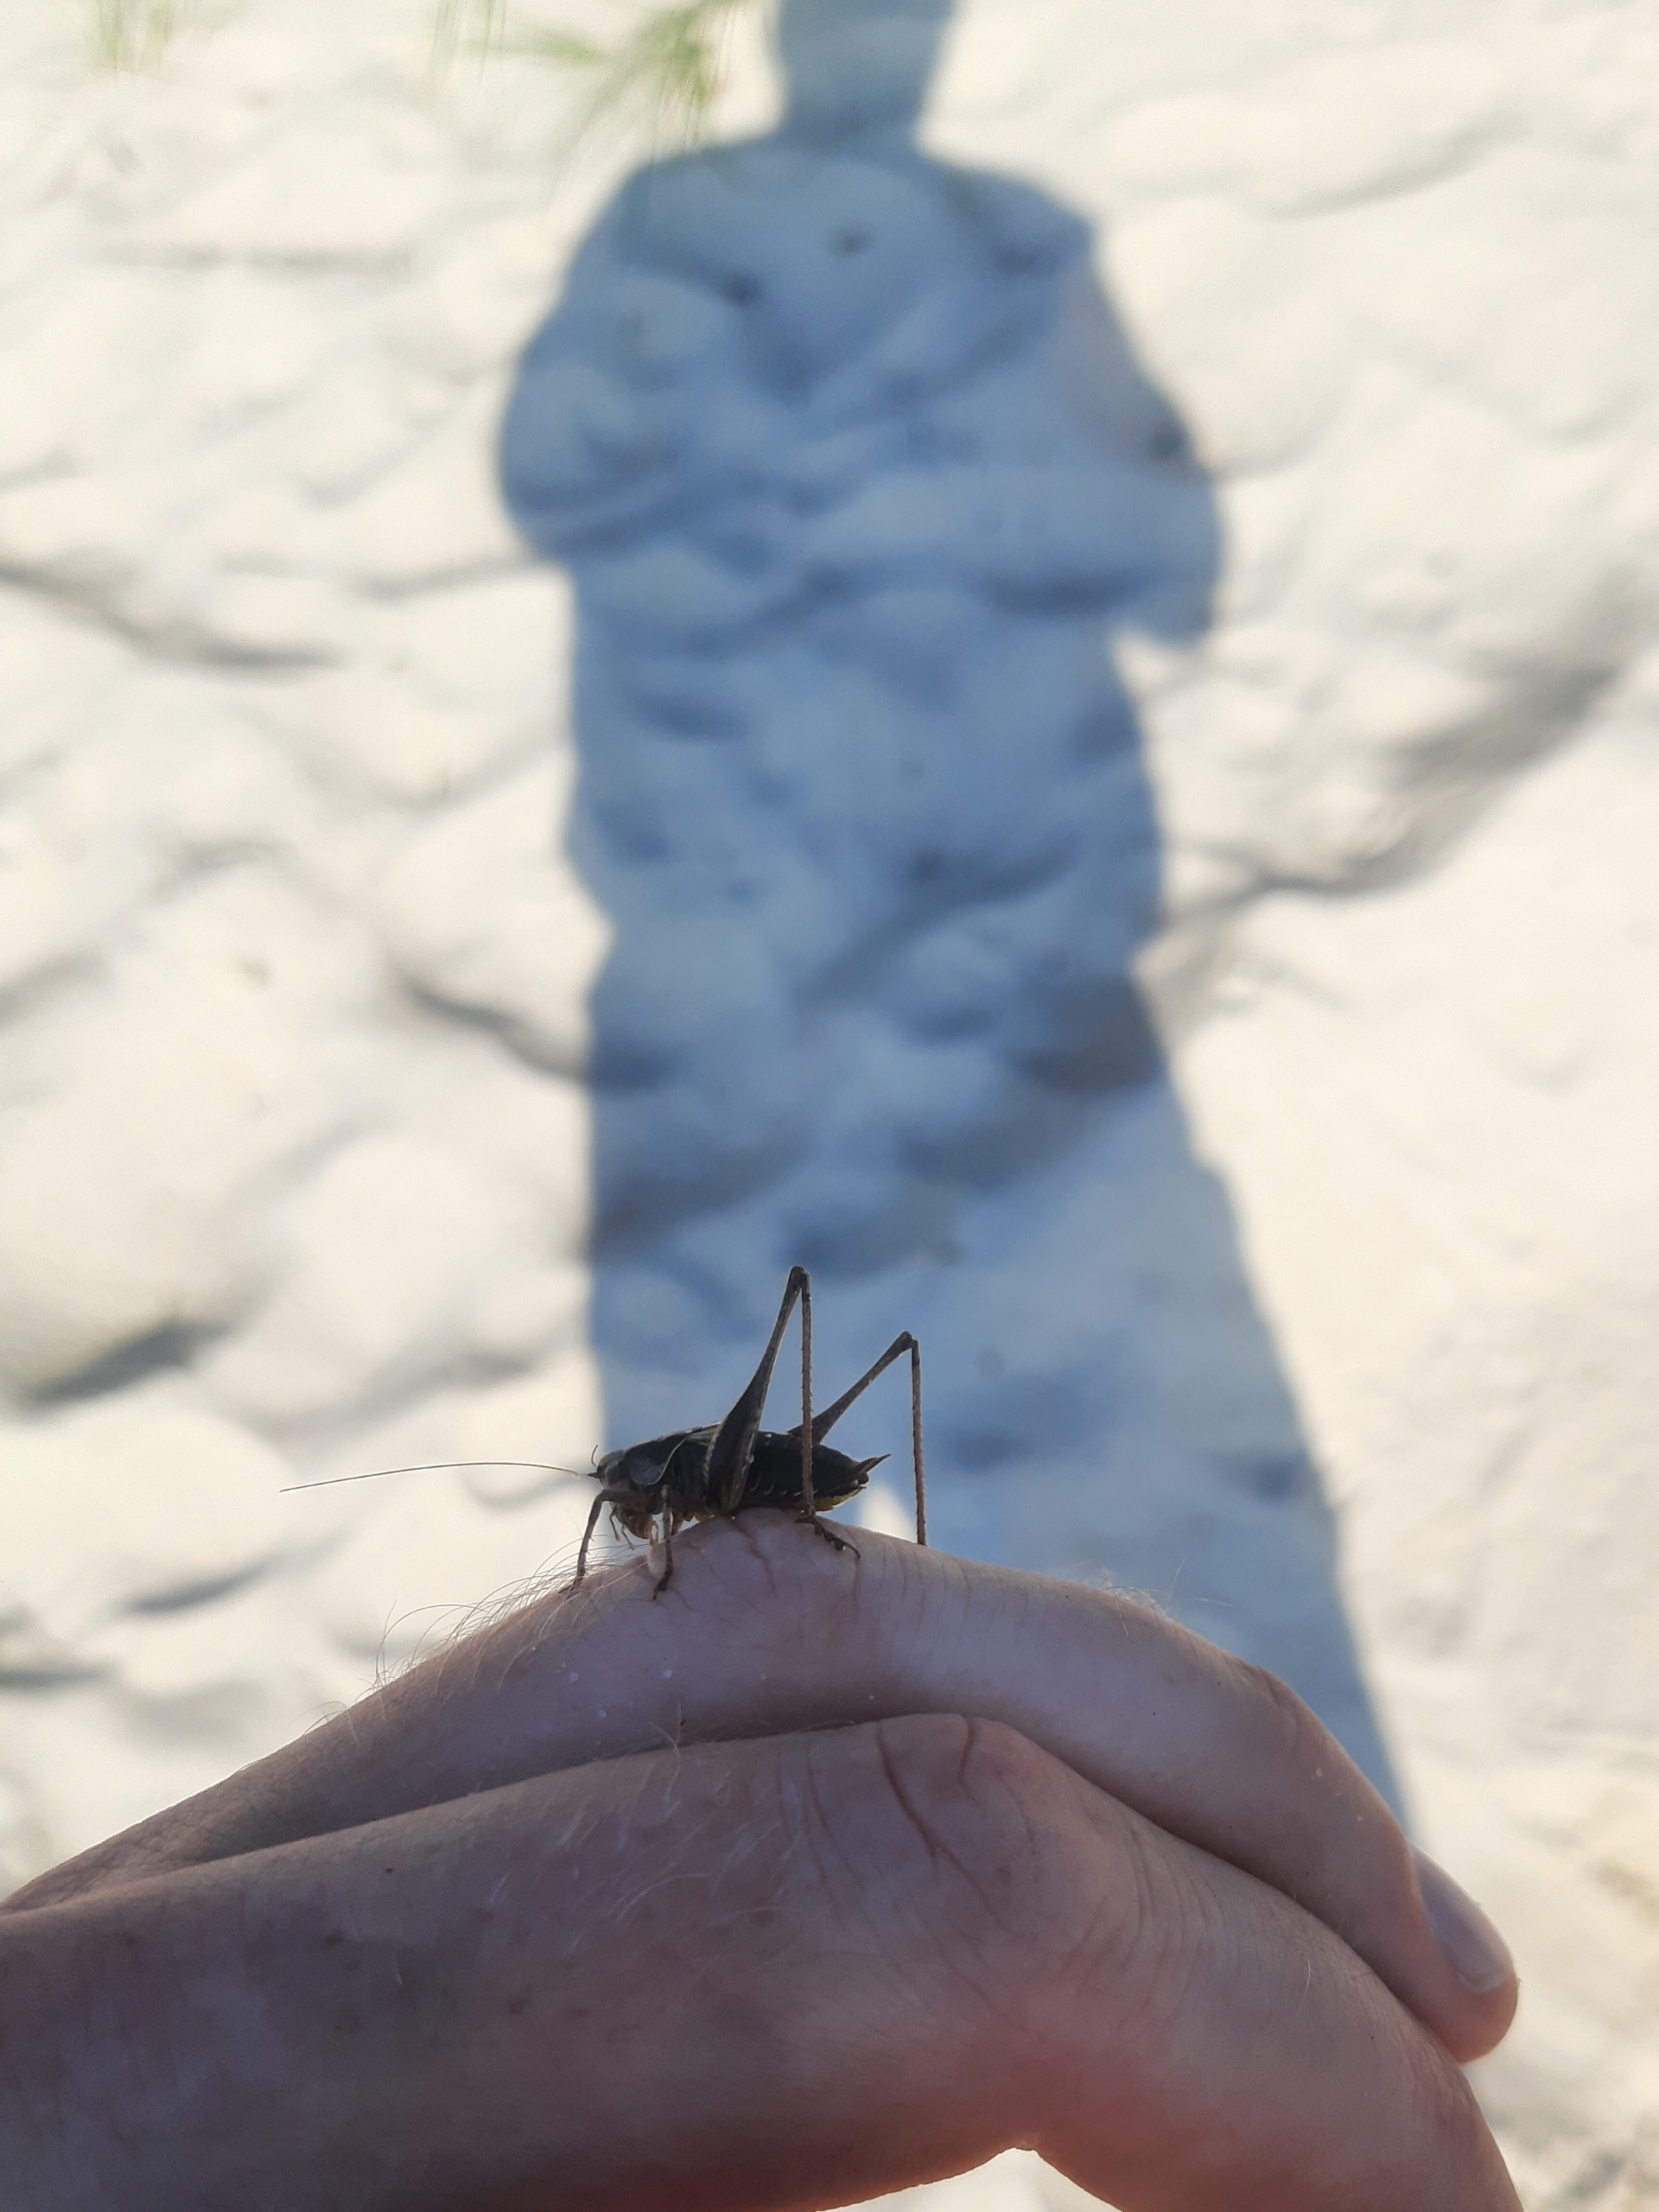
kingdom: Animalia
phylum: Arthropoda
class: Insecta
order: Orthoptera
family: Tettigoniidae
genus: Pholidoptera
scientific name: Pholidoptera griseoaptera
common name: Buskgræshoppe
